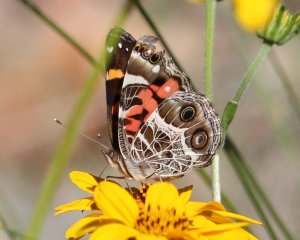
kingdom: Animalia
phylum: Arthropoda
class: Insecta
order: Lepidoptera
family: Nymphalidae
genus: Vanessa
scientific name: Vanessa virginiensis
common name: American Lady
